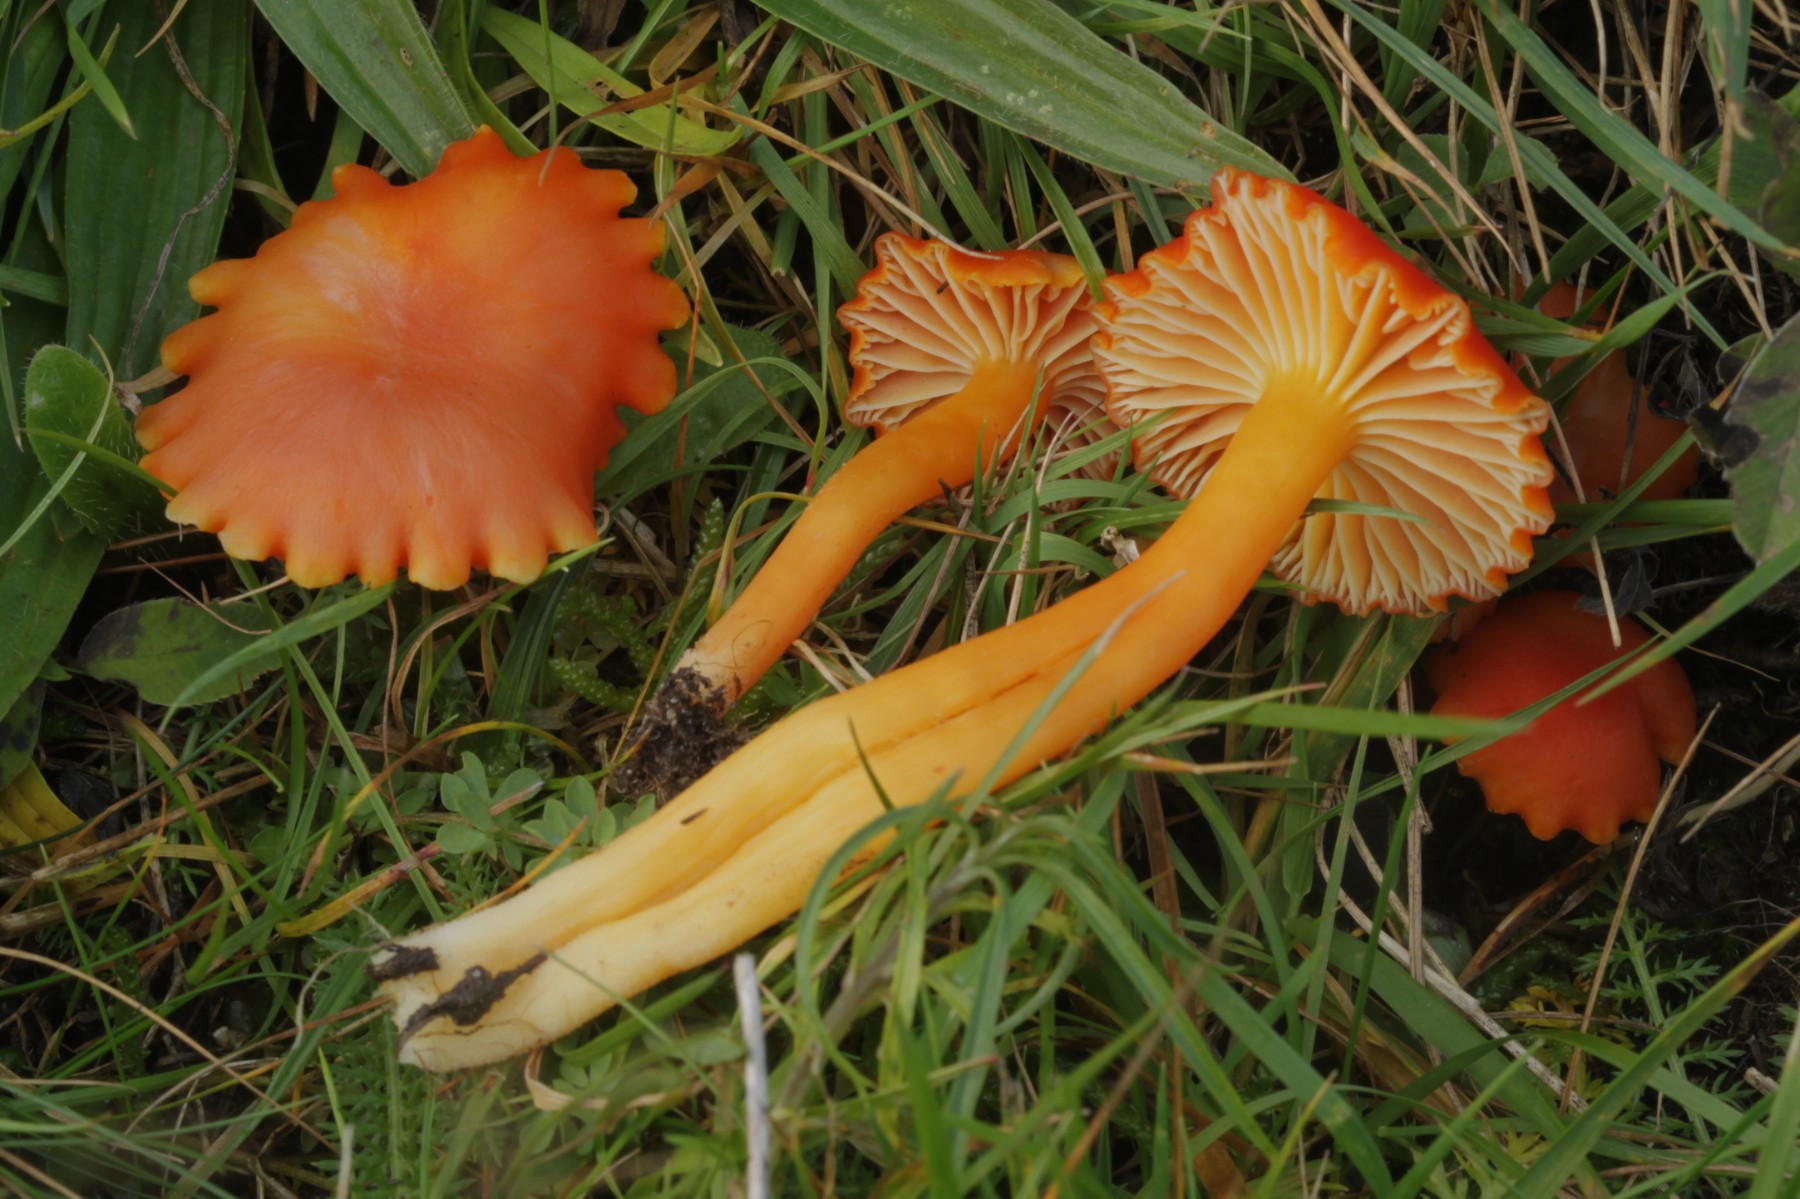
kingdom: Fungi
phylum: Basidiomycota
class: Agaricomycetes
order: Agaricales
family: Hygrophoraceae
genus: Hygrocybe
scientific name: Hygrocybe reidii
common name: honning-vokshat
